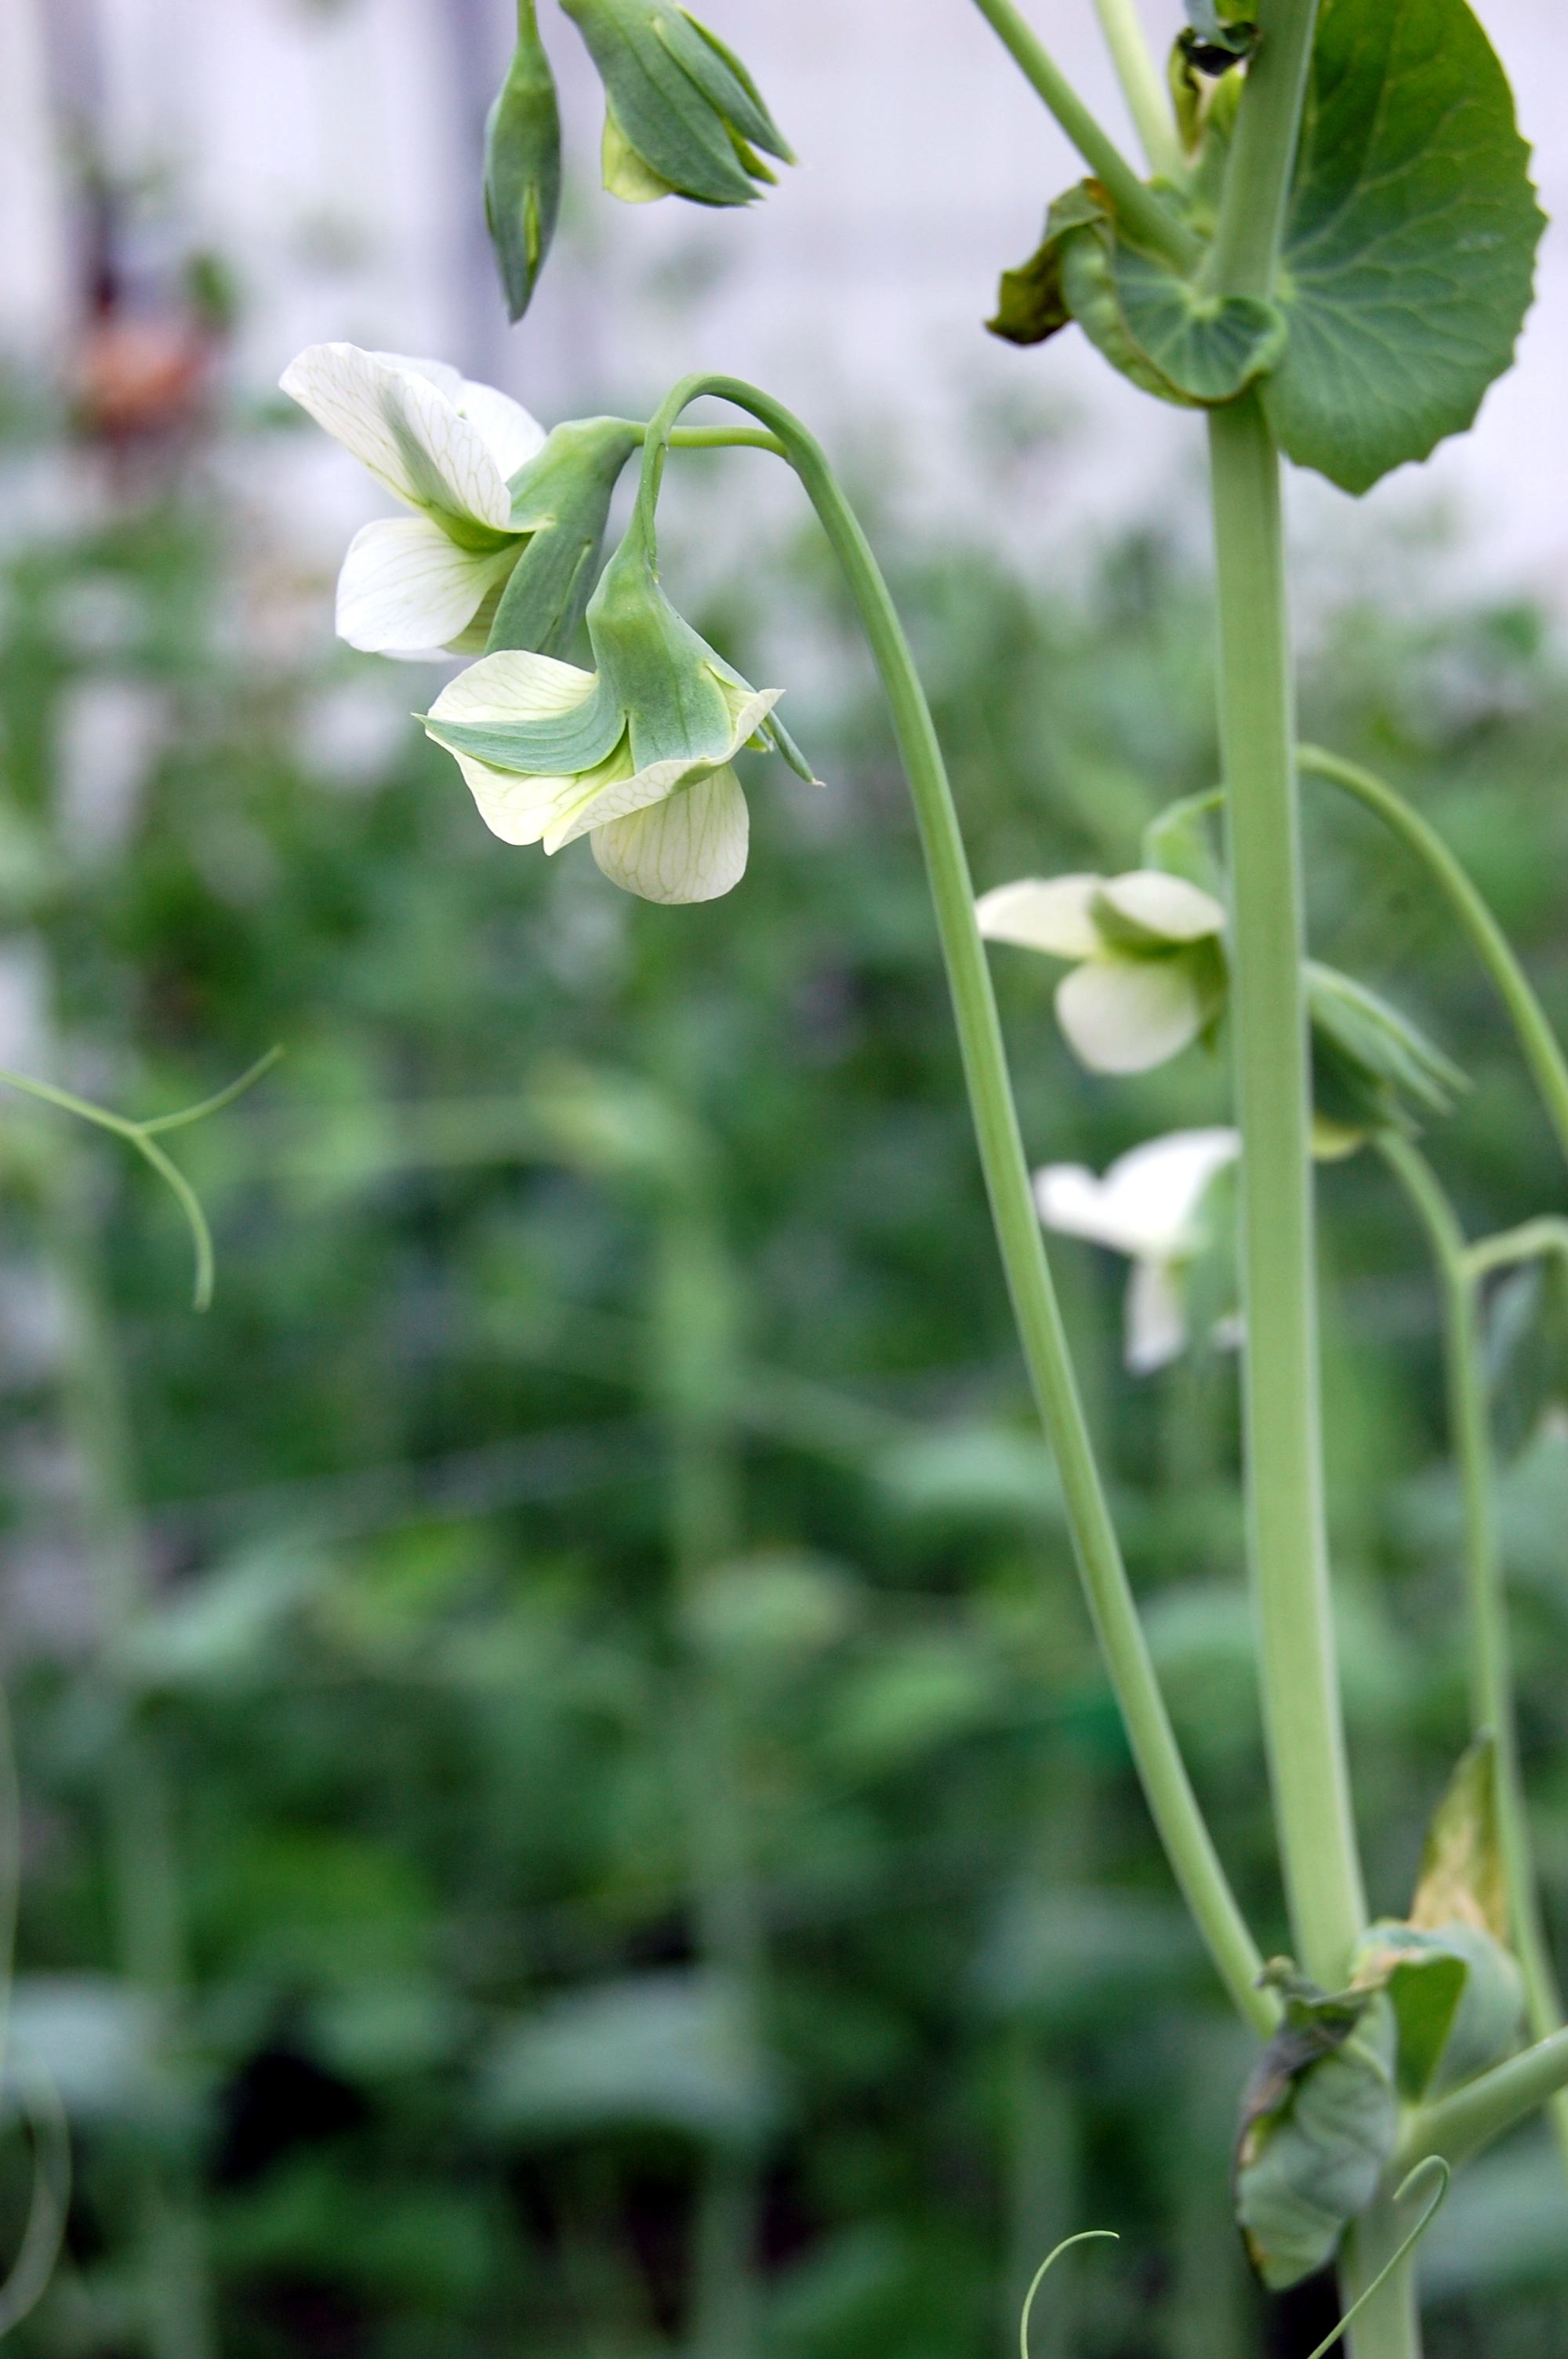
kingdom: Plantae
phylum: Tracheophyta
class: Magnoliopsida
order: Fabales
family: Fabaceae
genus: Lathyrus
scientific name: Lathyrus oleraceus
